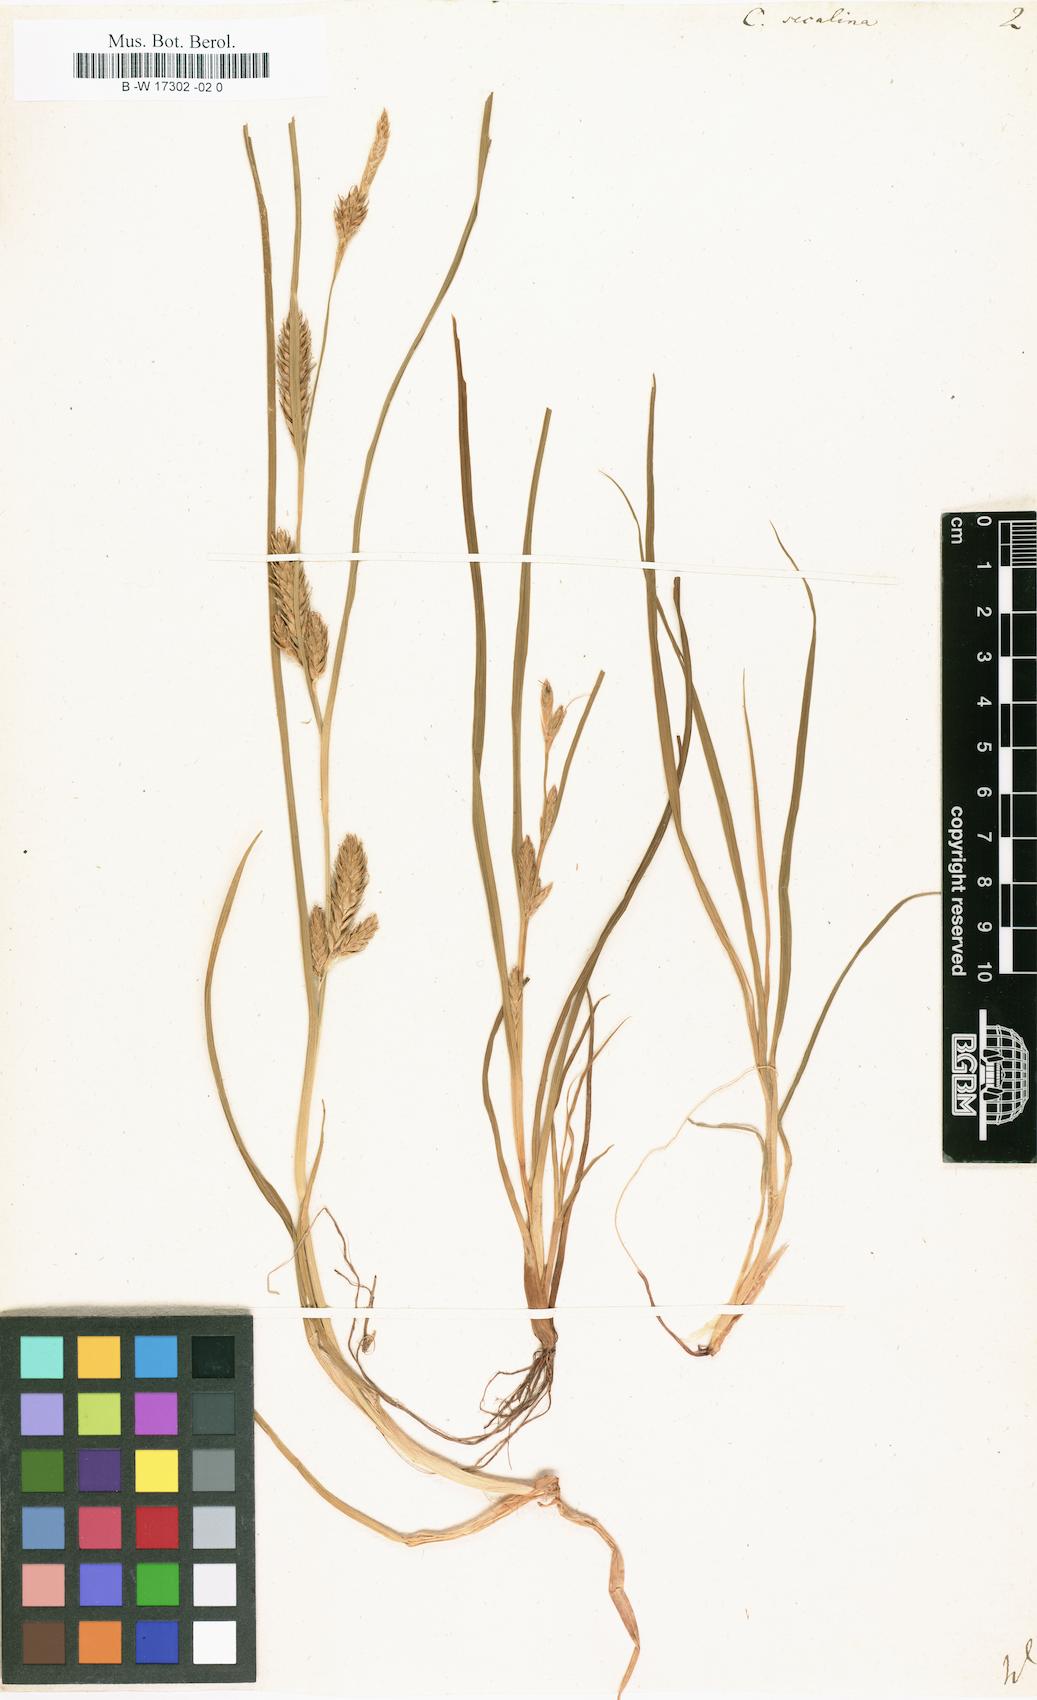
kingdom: Plantae
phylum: Tracheophyta
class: Liliopsida
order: Poales
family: Cyperaceae
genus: Carex
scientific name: Carex secalina
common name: Rye sedge
